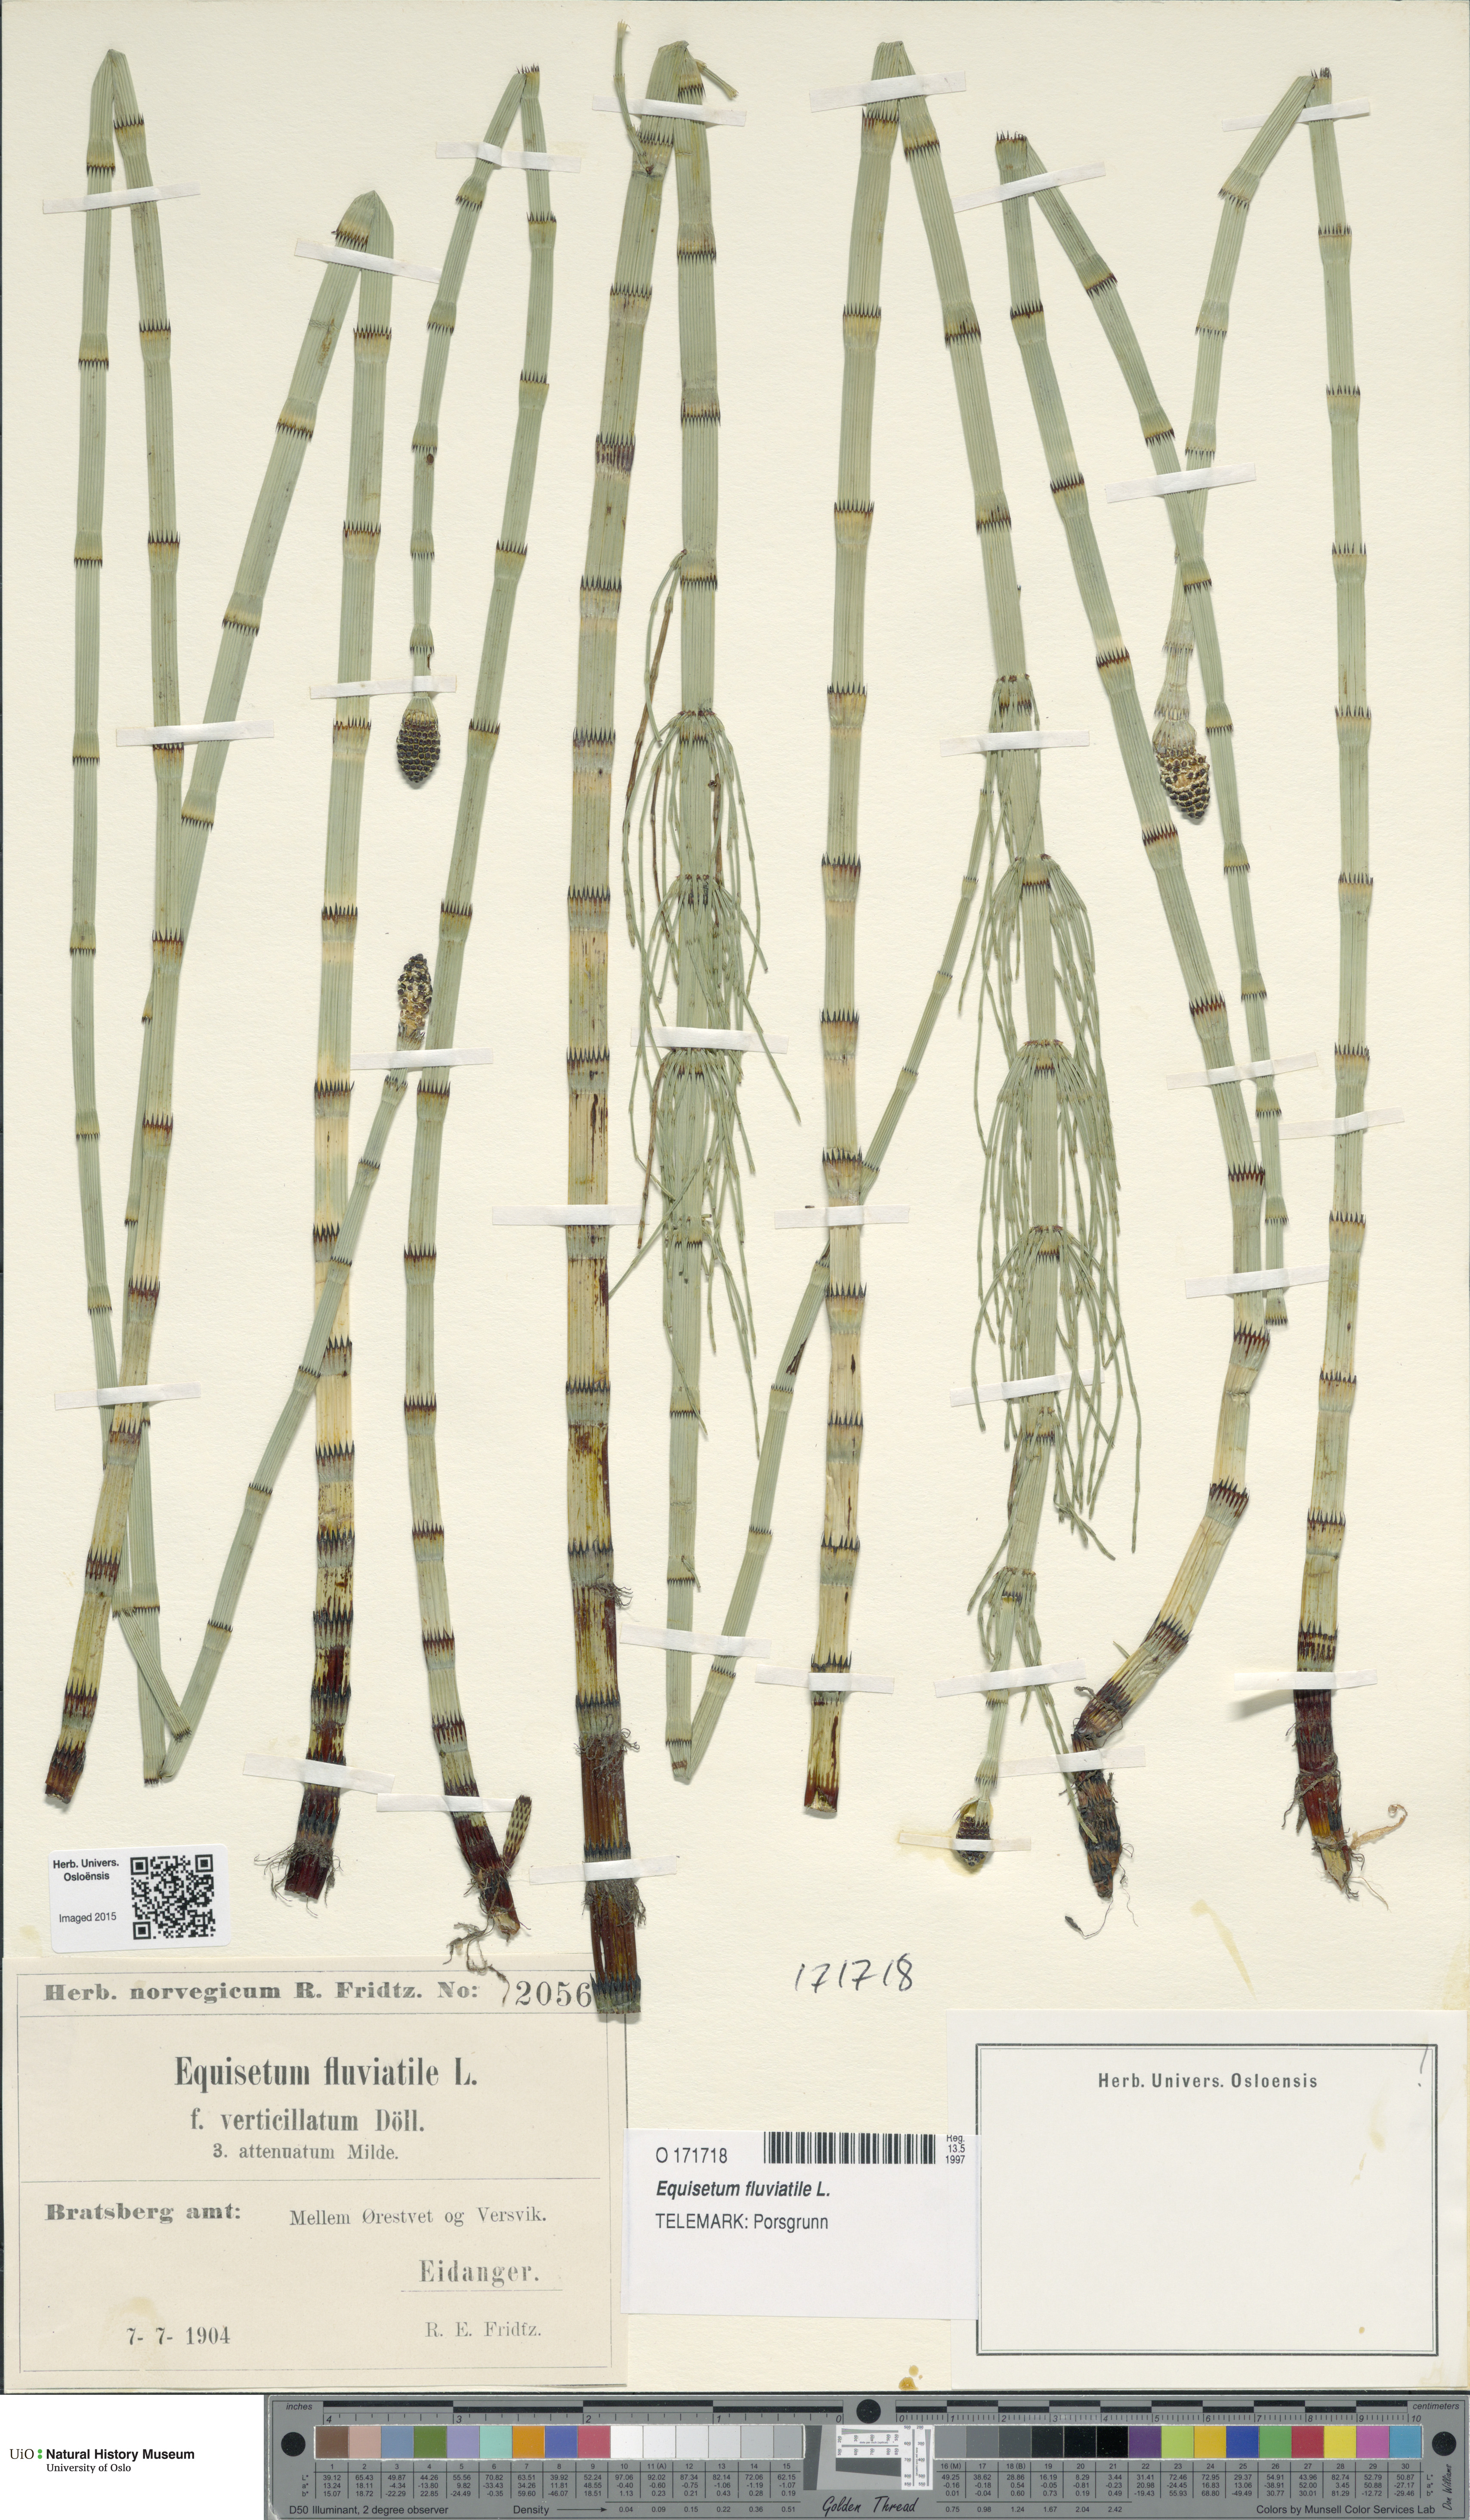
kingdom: Plantae
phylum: Tracheophyta
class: Polypodiopsida
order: Equisetales
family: Equisetaceae
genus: Equisetum
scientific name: Equisetum fluviatile
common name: Water horsetail
